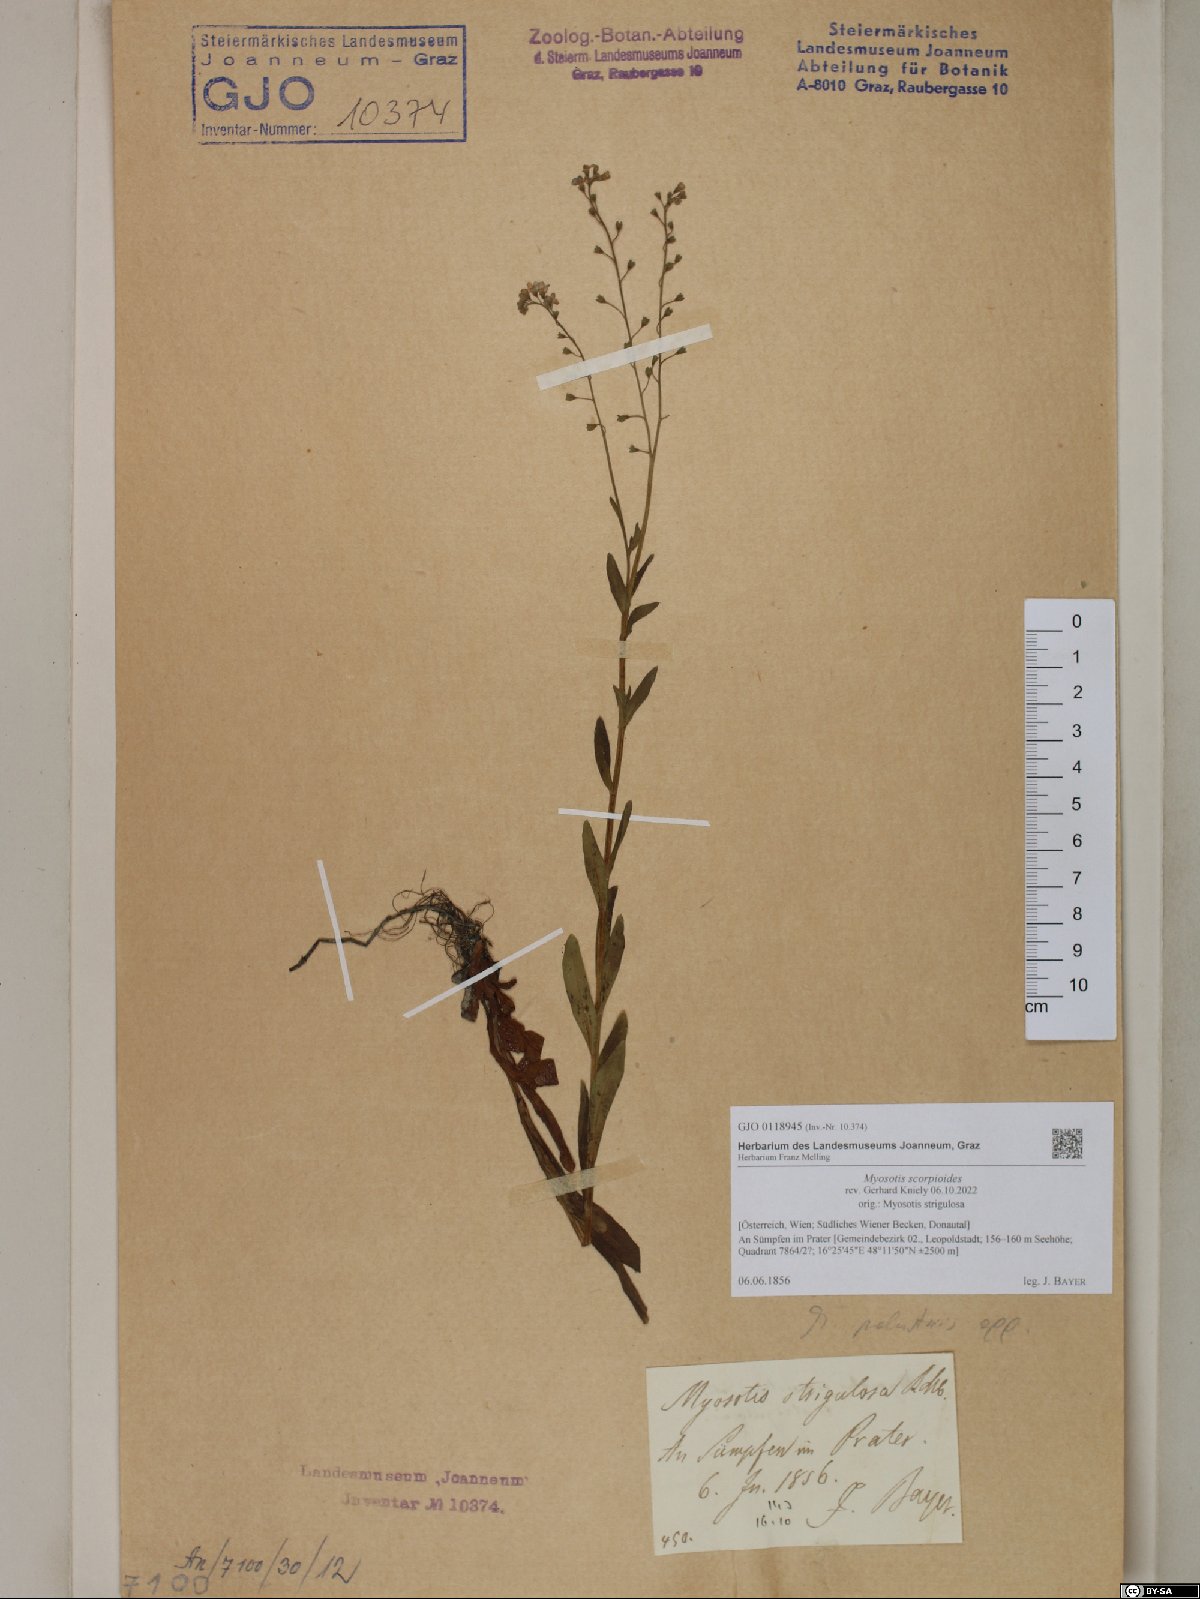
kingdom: Plantae
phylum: Tracheophyta
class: Magnoliopsida
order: Boraginales
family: Boraginaceae
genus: Myosotis
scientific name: Myosotis scorpioides
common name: Water forget-me-not
